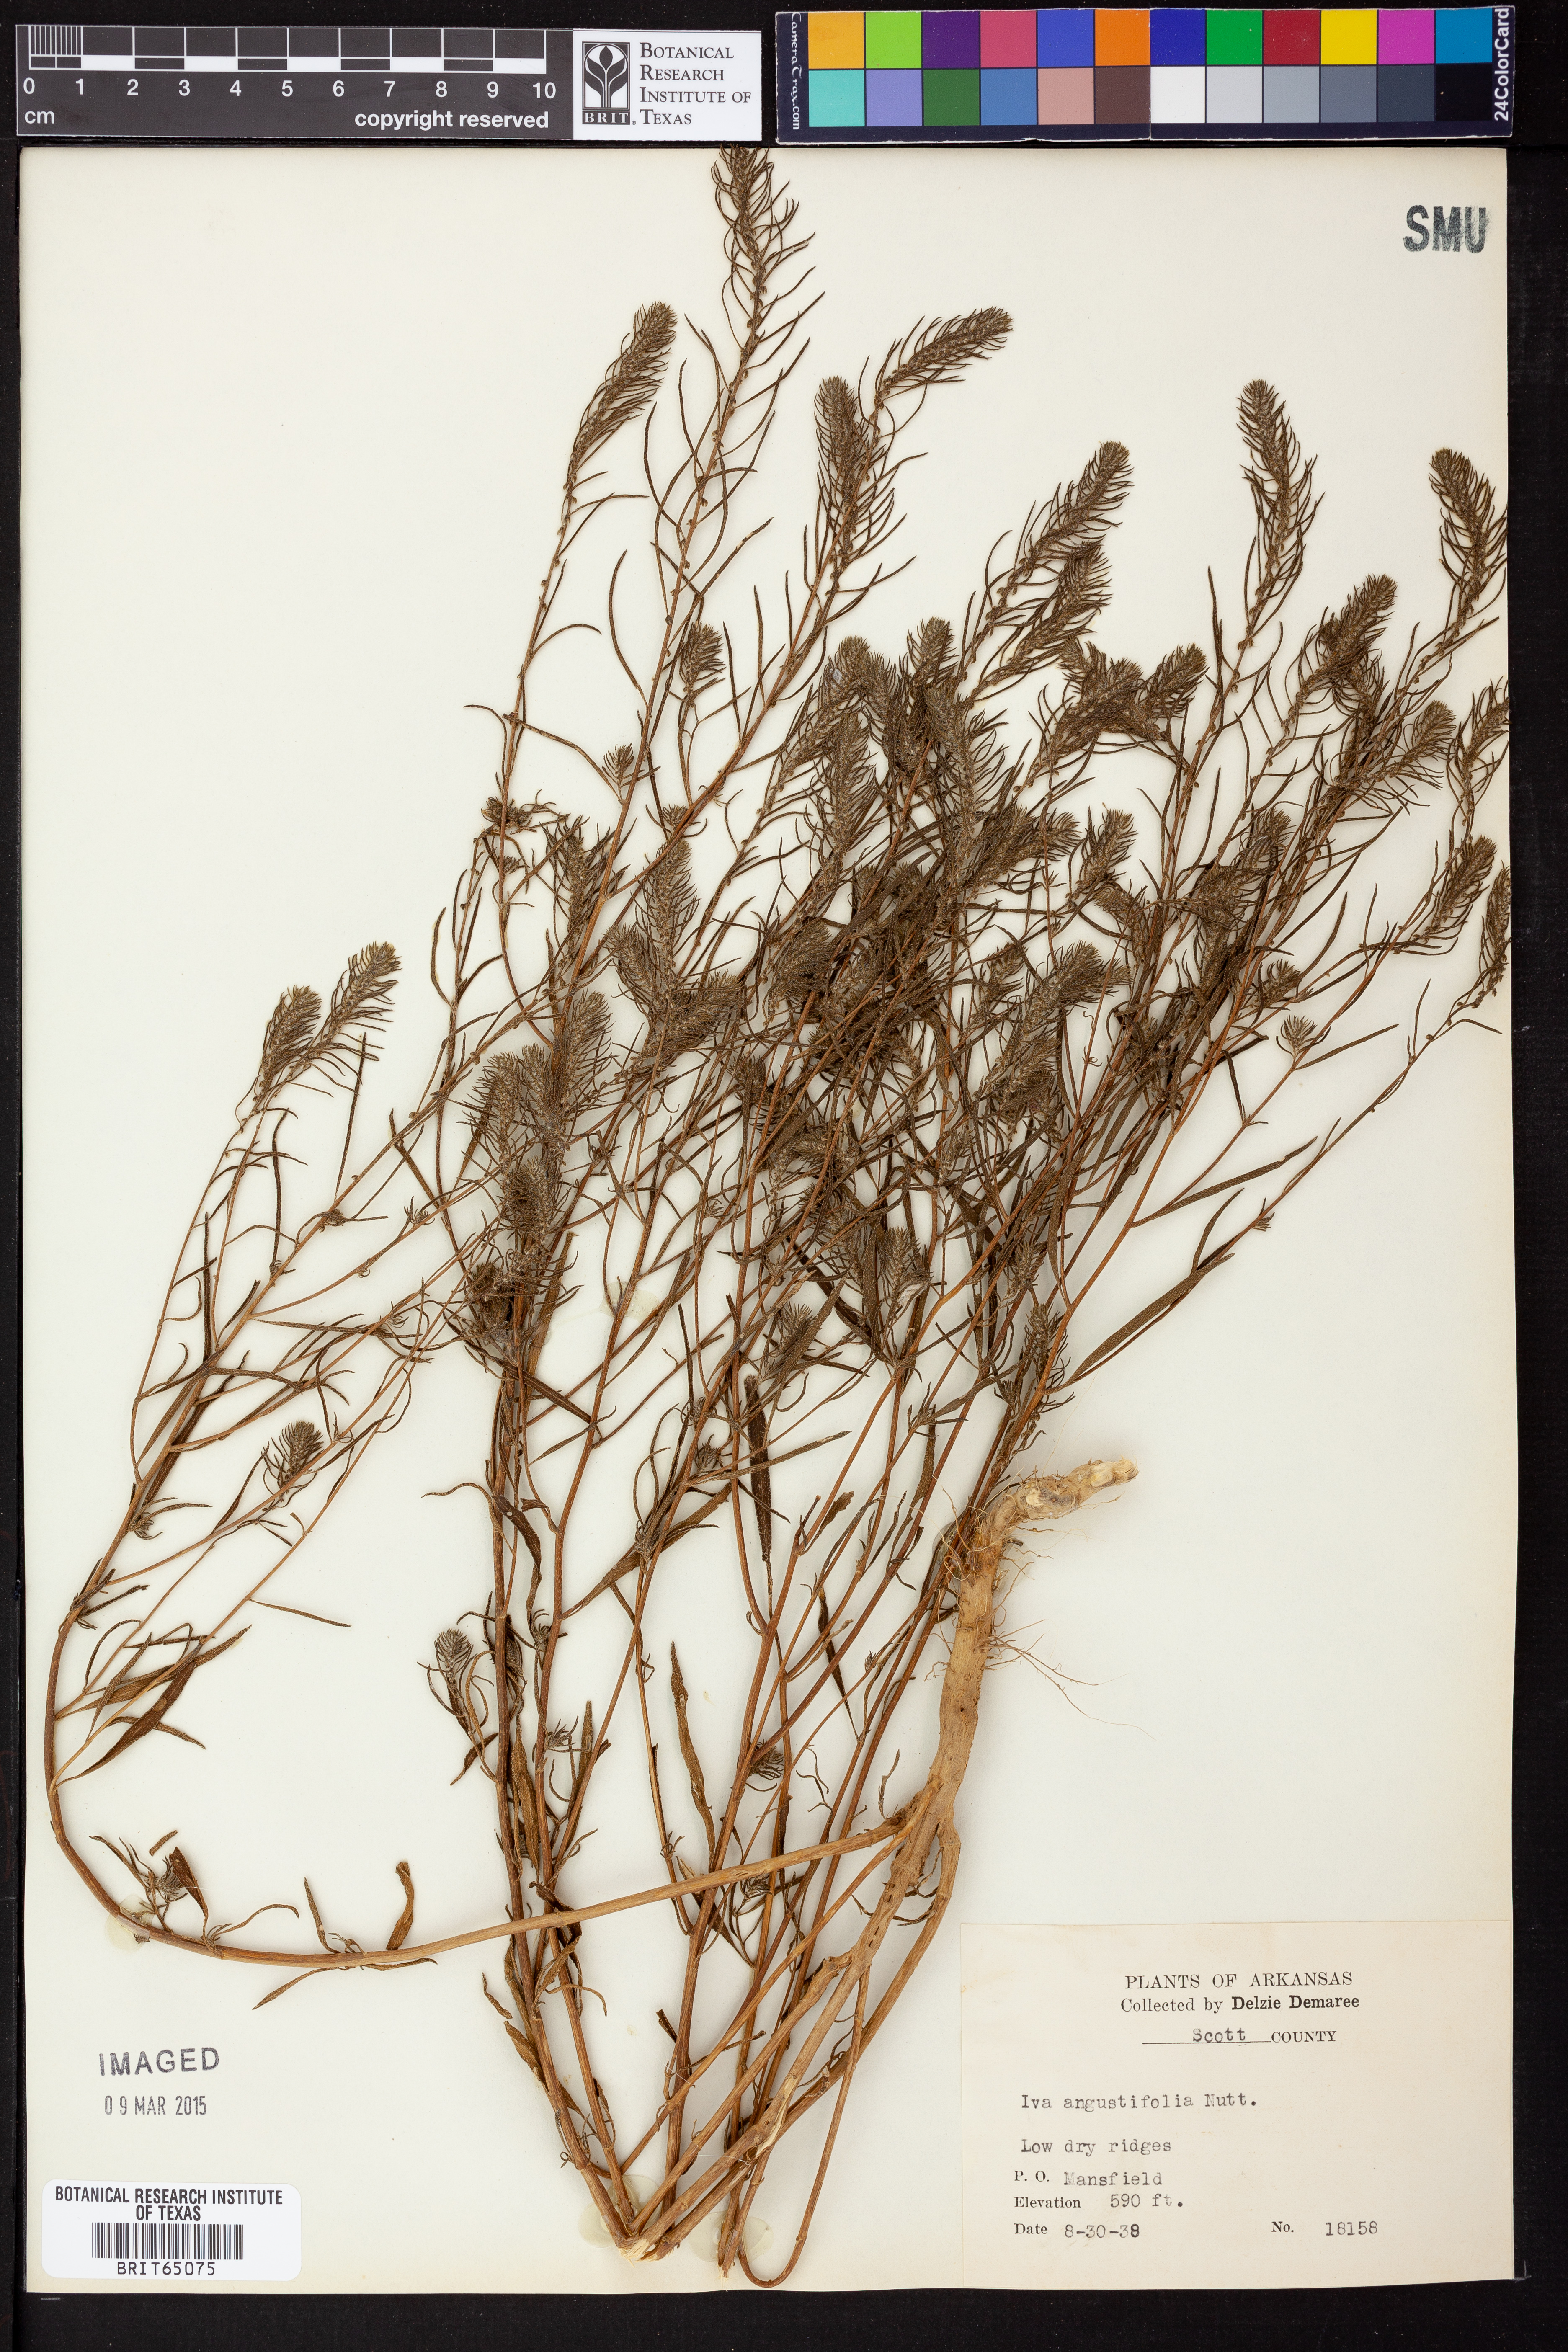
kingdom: Plantae
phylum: Tracheophyta
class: Magnoliopsida
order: Asterales
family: Asteraceae
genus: Iva
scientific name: Iva asperifolia
